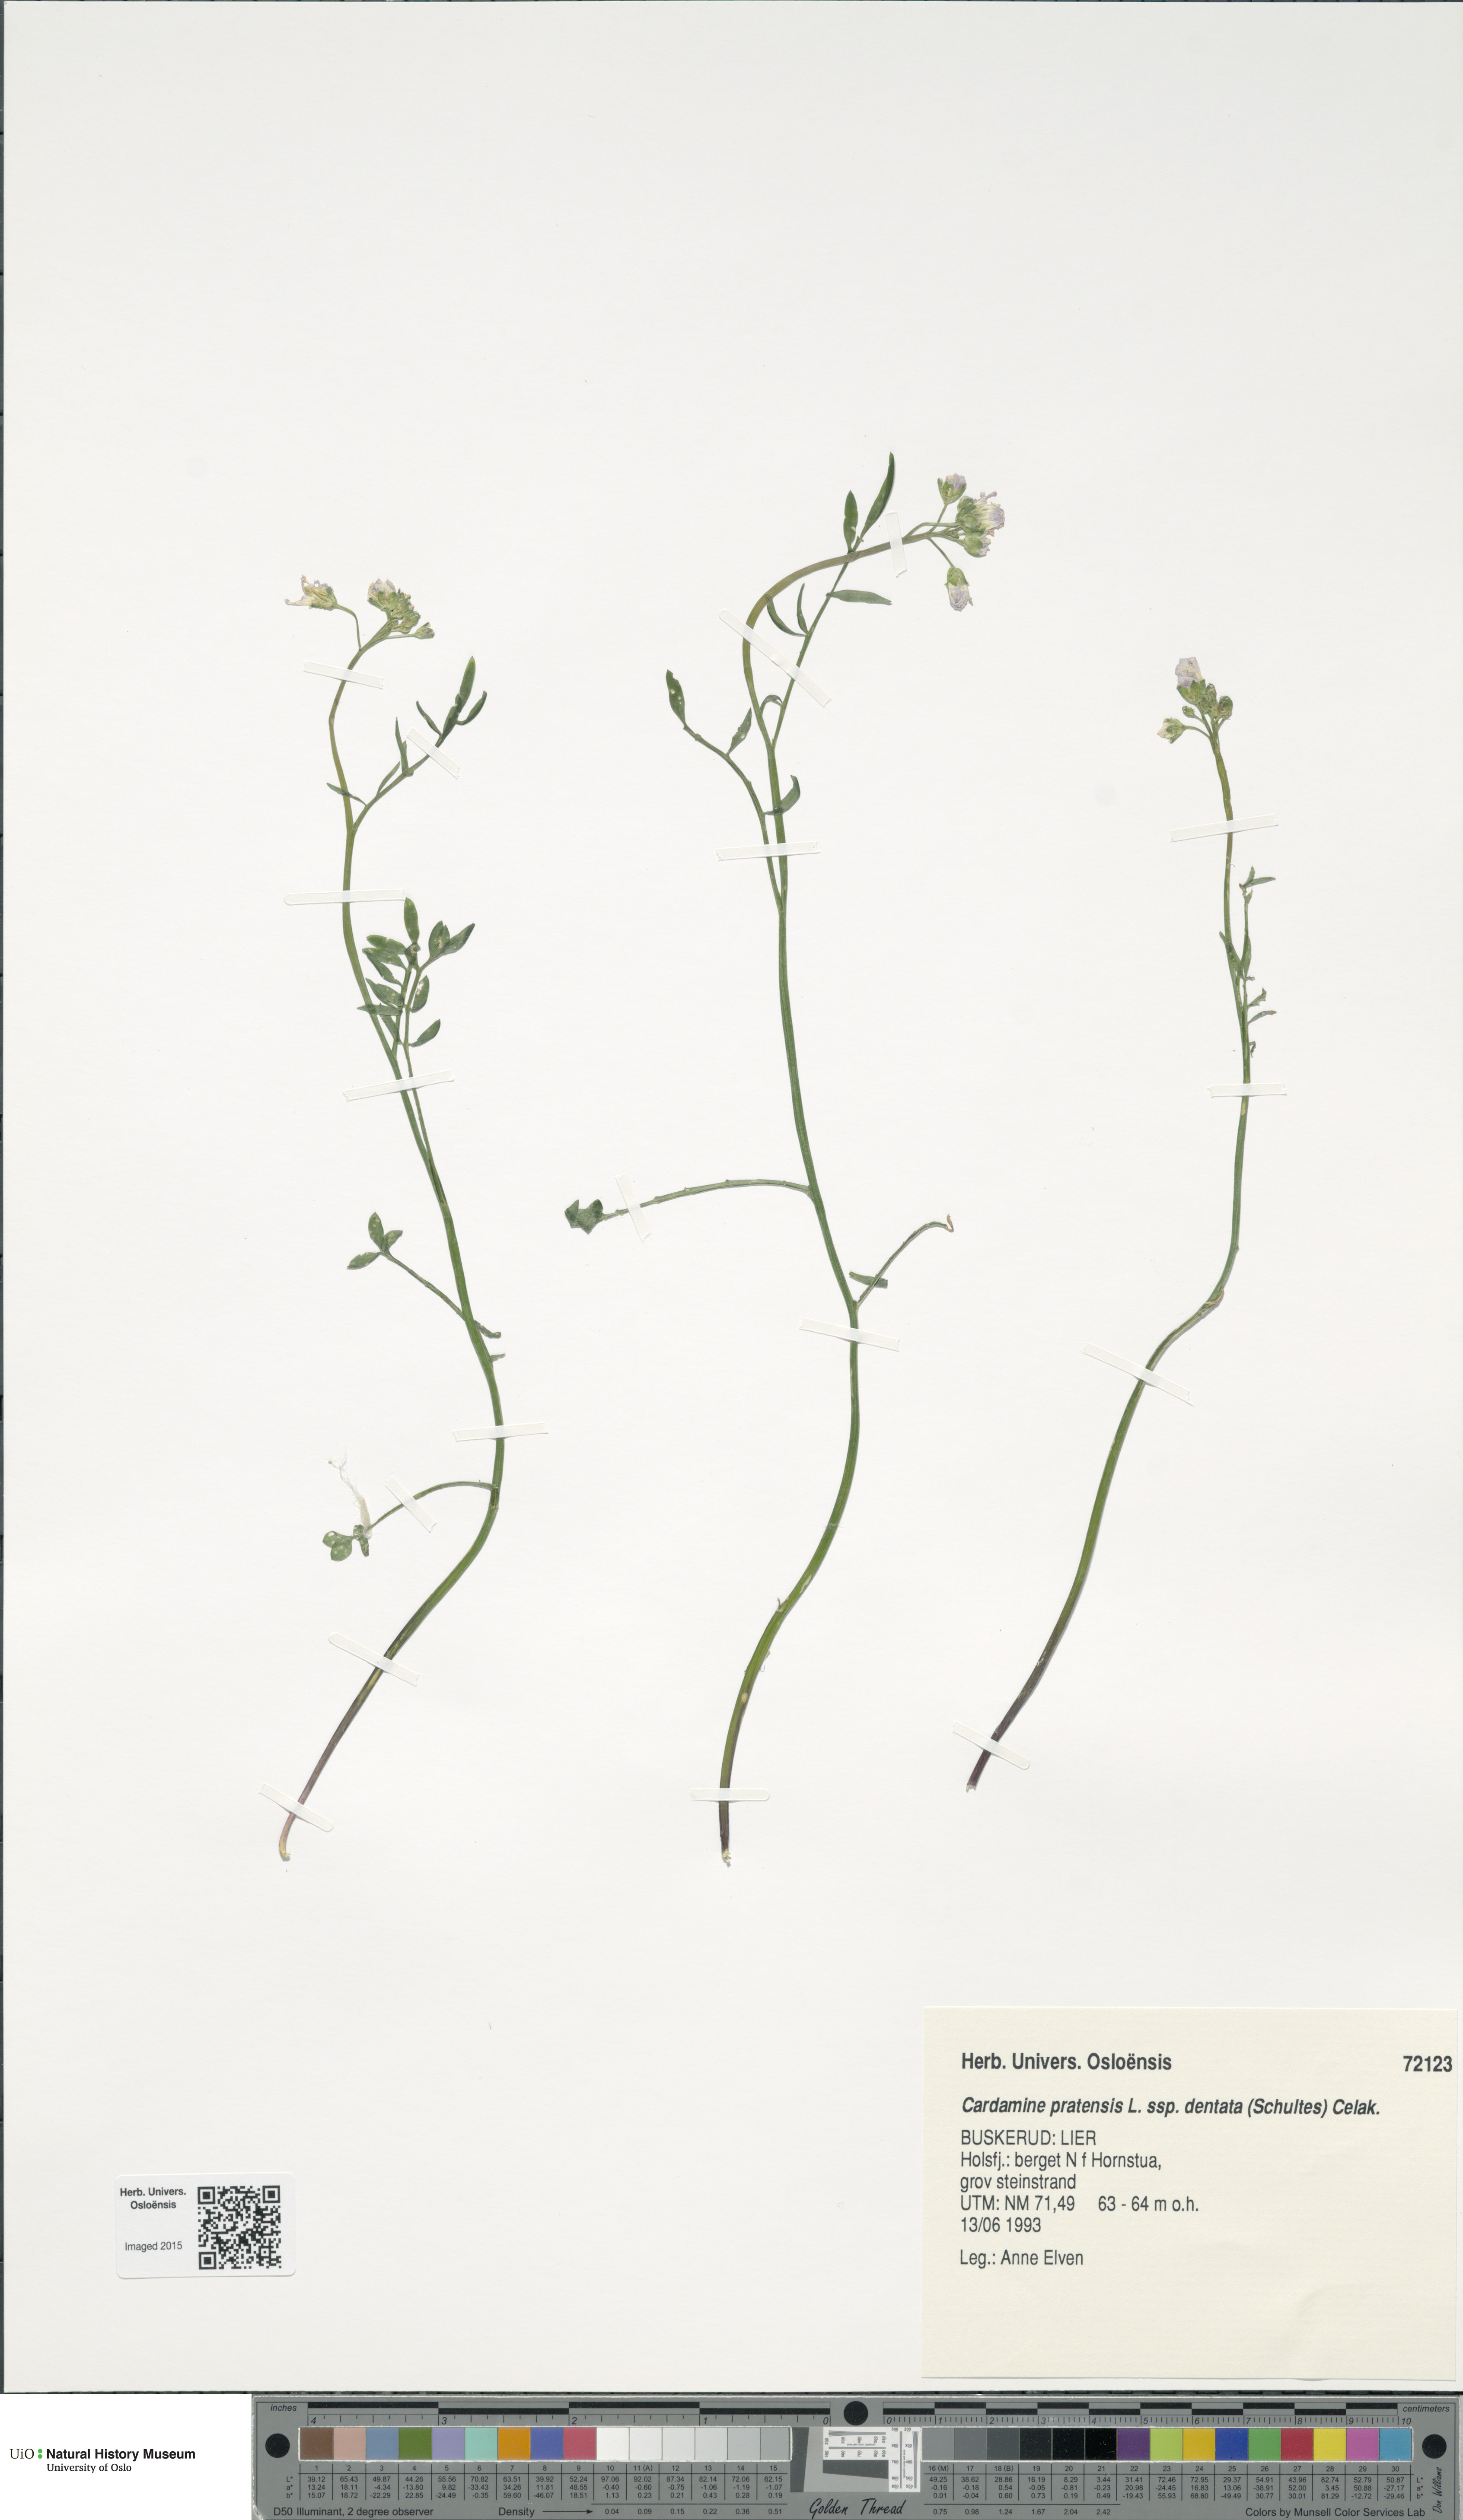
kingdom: Plantae
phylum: Tracheophyta
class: Magnoliopsida
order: Brassicales
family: Brassicaceae
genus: Cardamine
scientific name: Cardamine dentata
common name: Toothed bittercress
